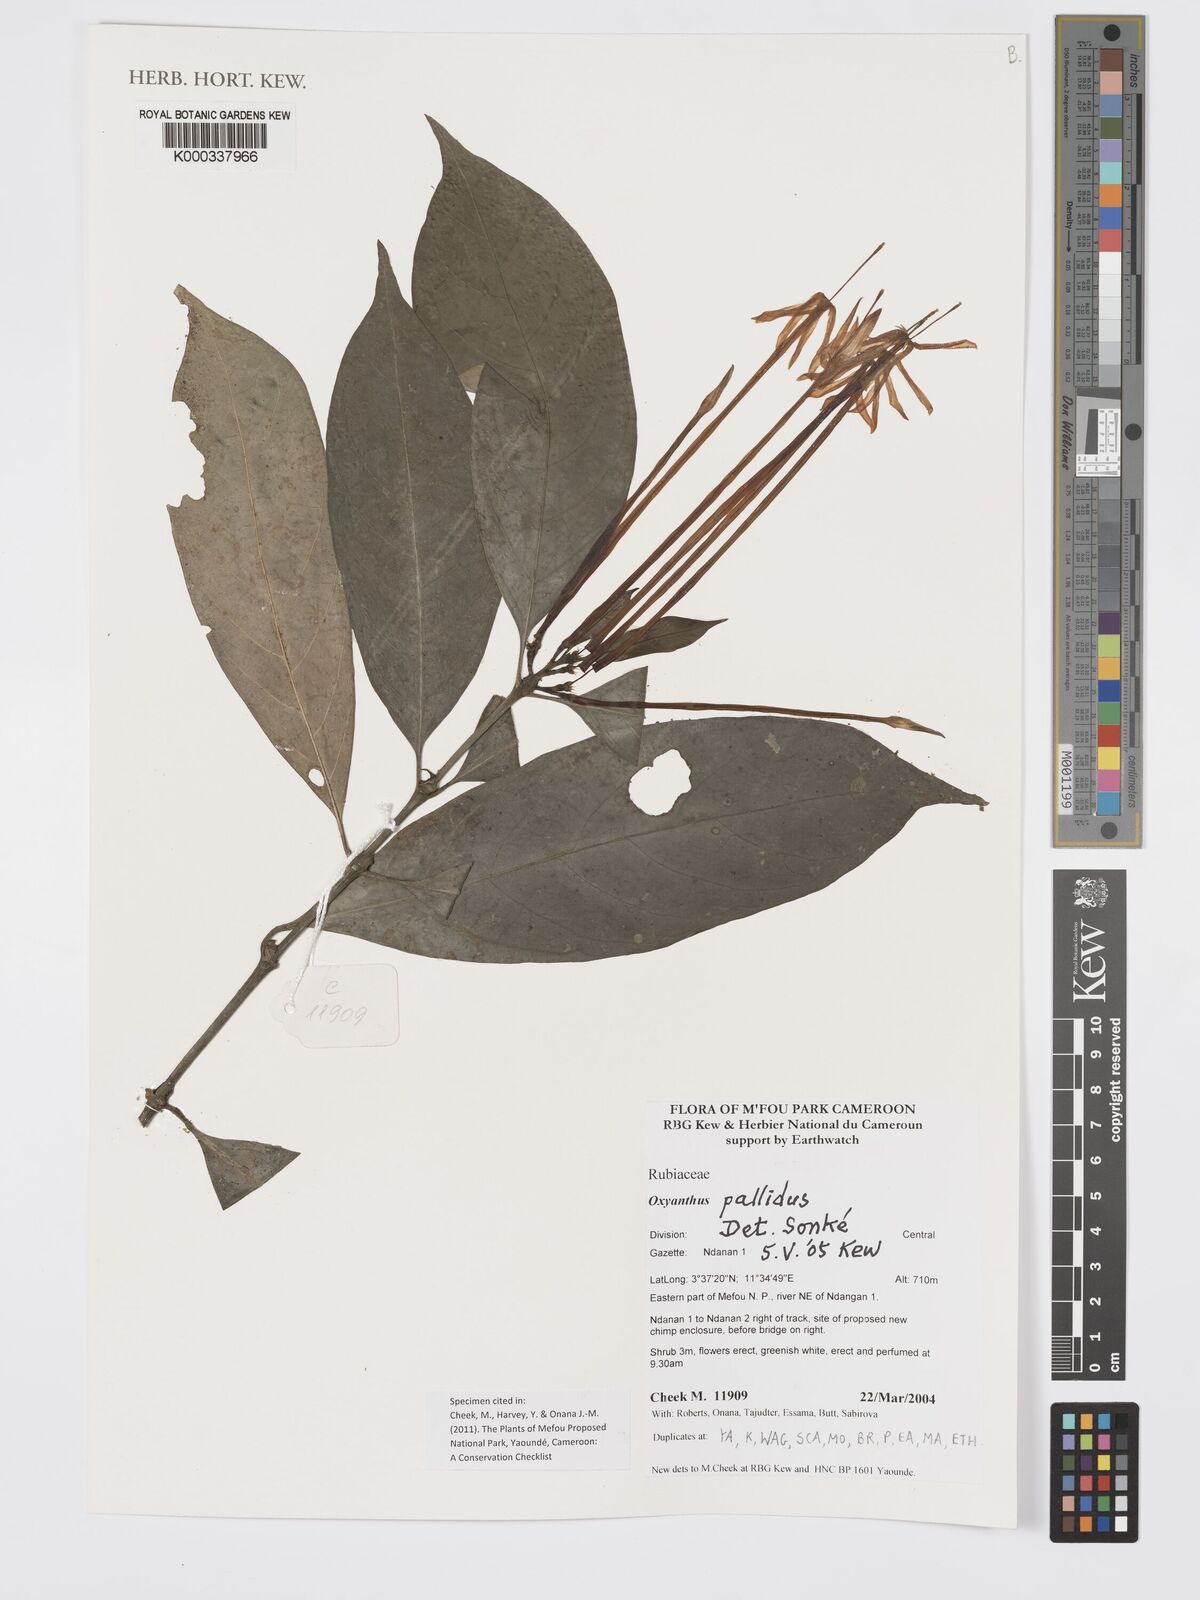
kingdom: Plantae
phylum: Tracheophyta
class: Magnoliopsida
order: Gentianales
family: Rubiaceae
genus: Oxyanthus
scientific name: Oxyanthus pallidus
